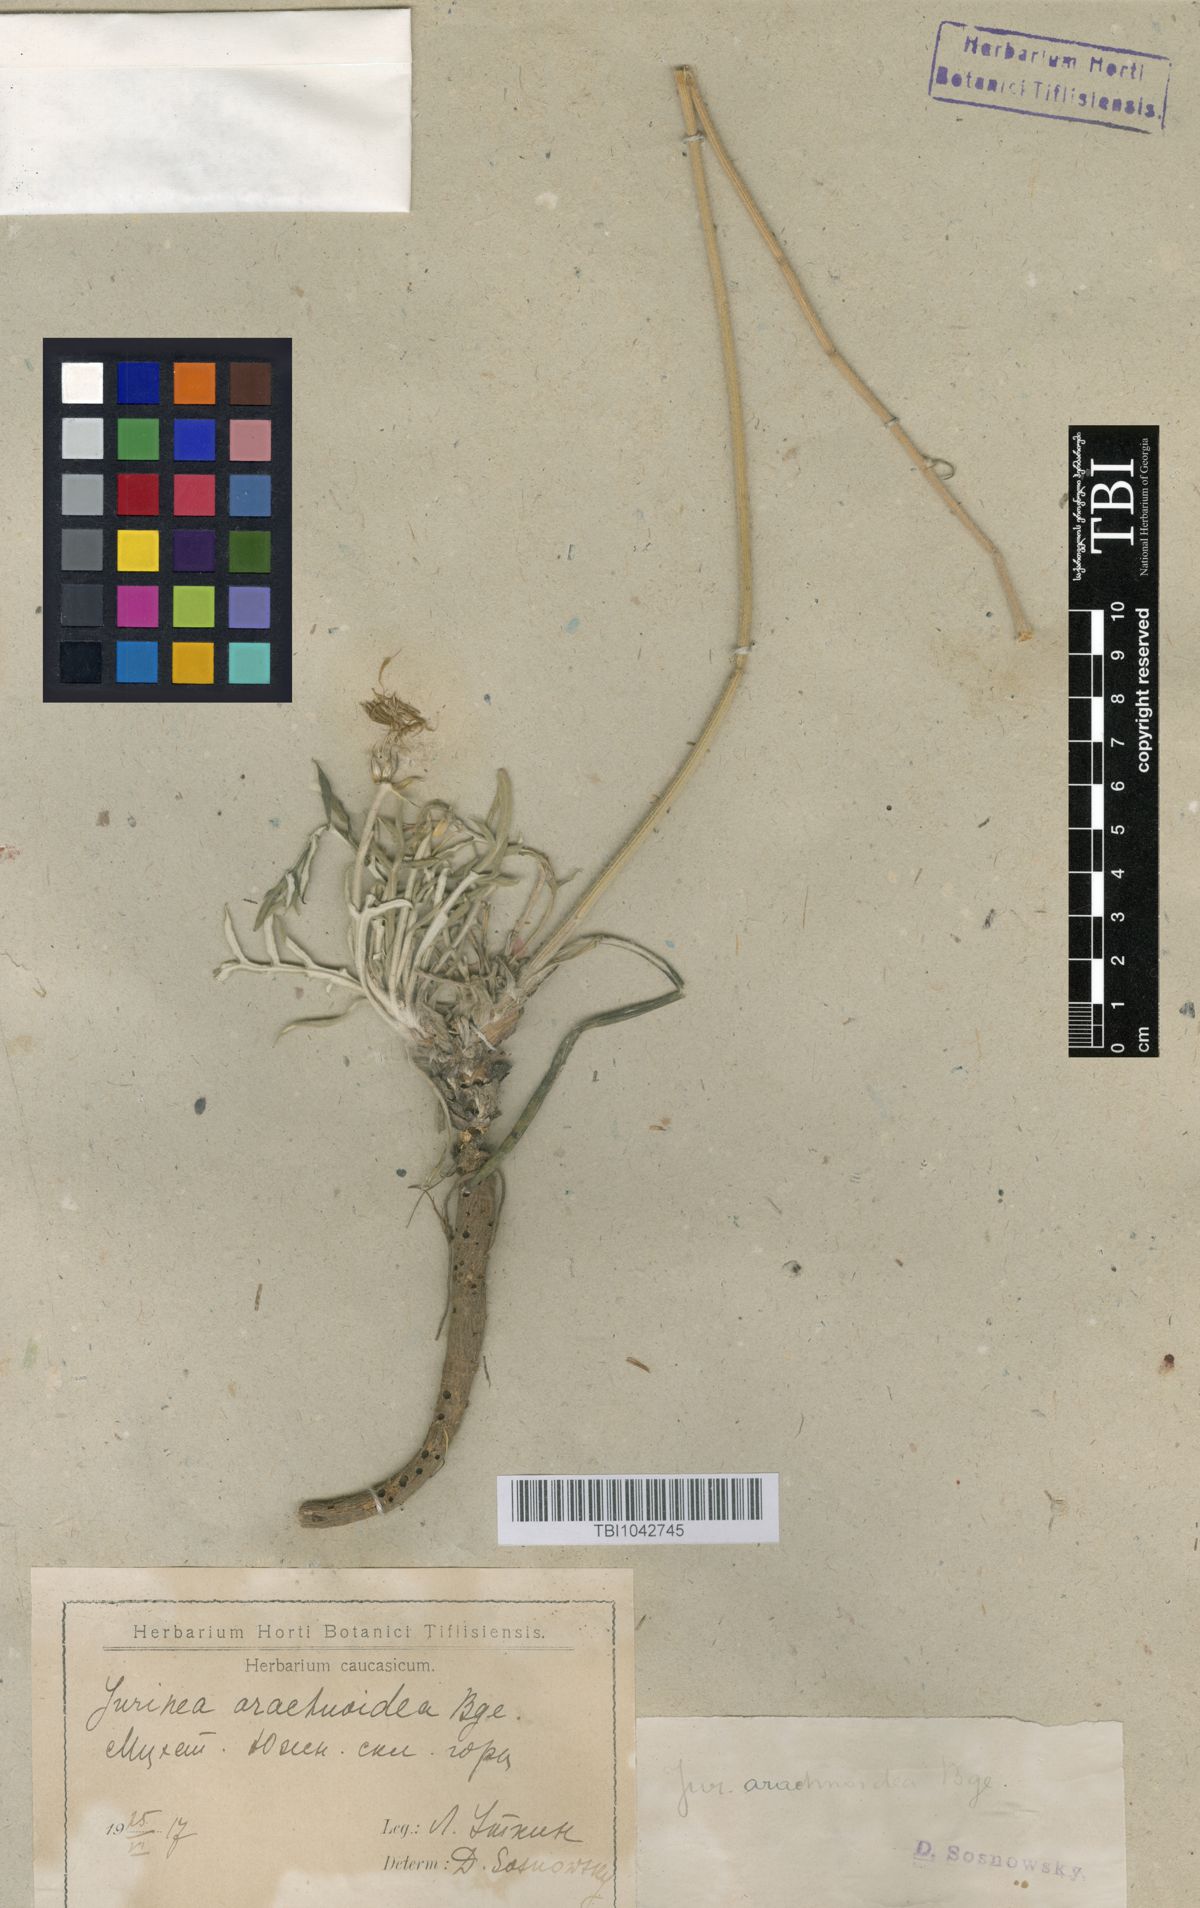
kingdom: Plantae
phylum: Tracheophyta
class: Magnoliopsida
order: Asterales
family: Asteraceae
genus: Jurinea
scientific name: Jurinea blanda
